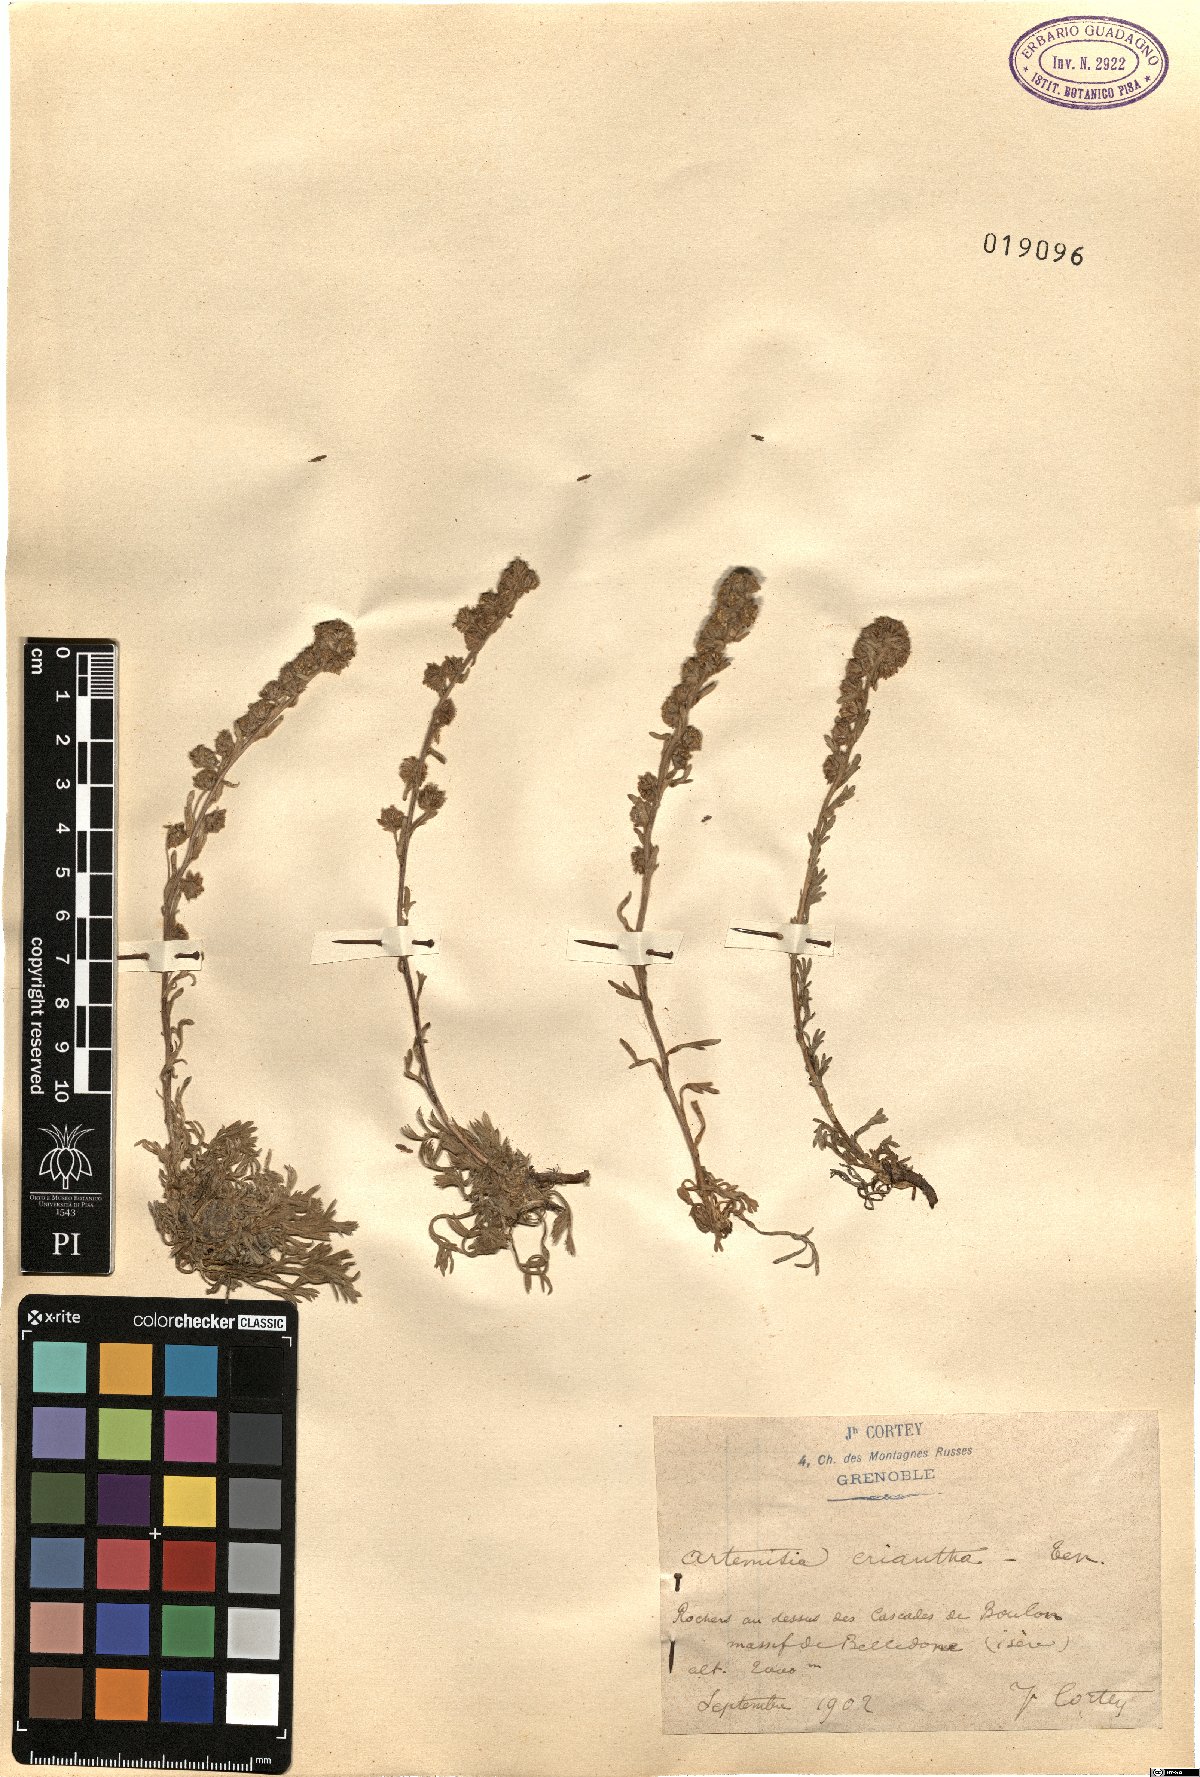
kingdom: Plantae
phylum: Tracheophyta
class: Magnoliopsida
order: Asterales
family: Asteraceae
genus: Artemisia
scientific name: Artemisia eriantha
